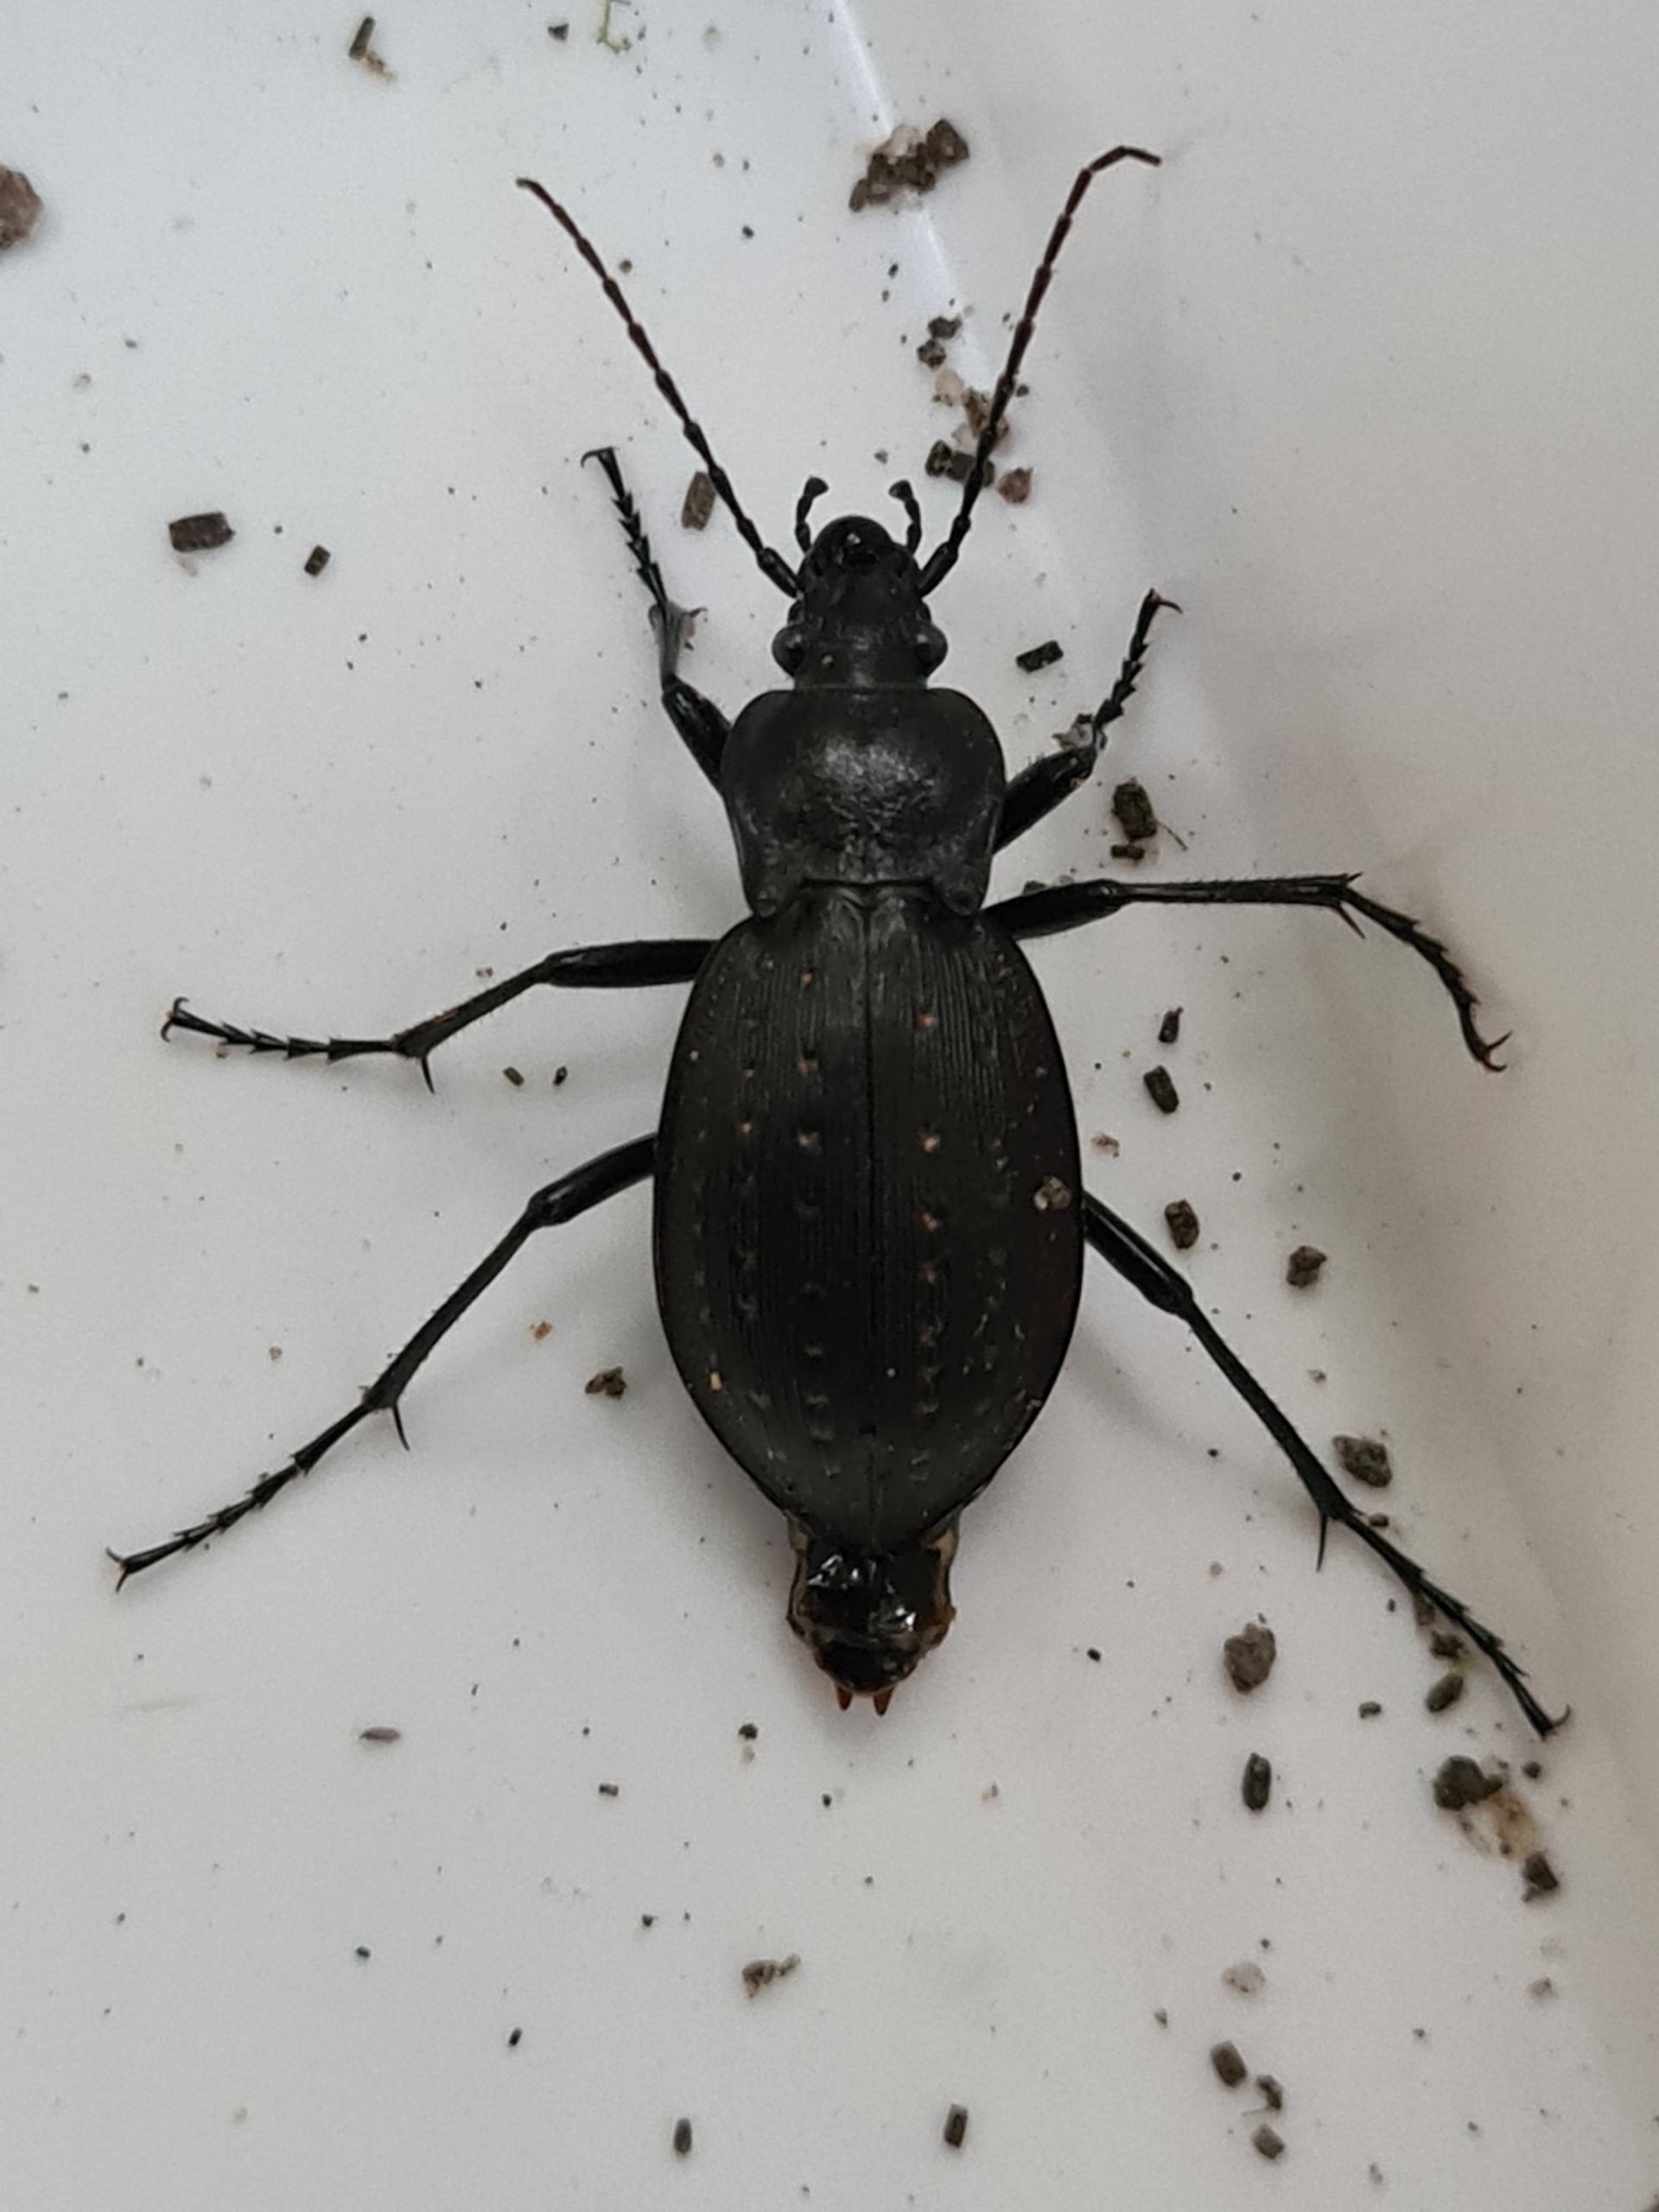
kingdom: Animalia
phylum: Arthropoda
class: Insecta
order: Coleoptera
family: Carabidae
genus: Carabus
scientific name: Carabus hortensis
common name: Guldpletløber
